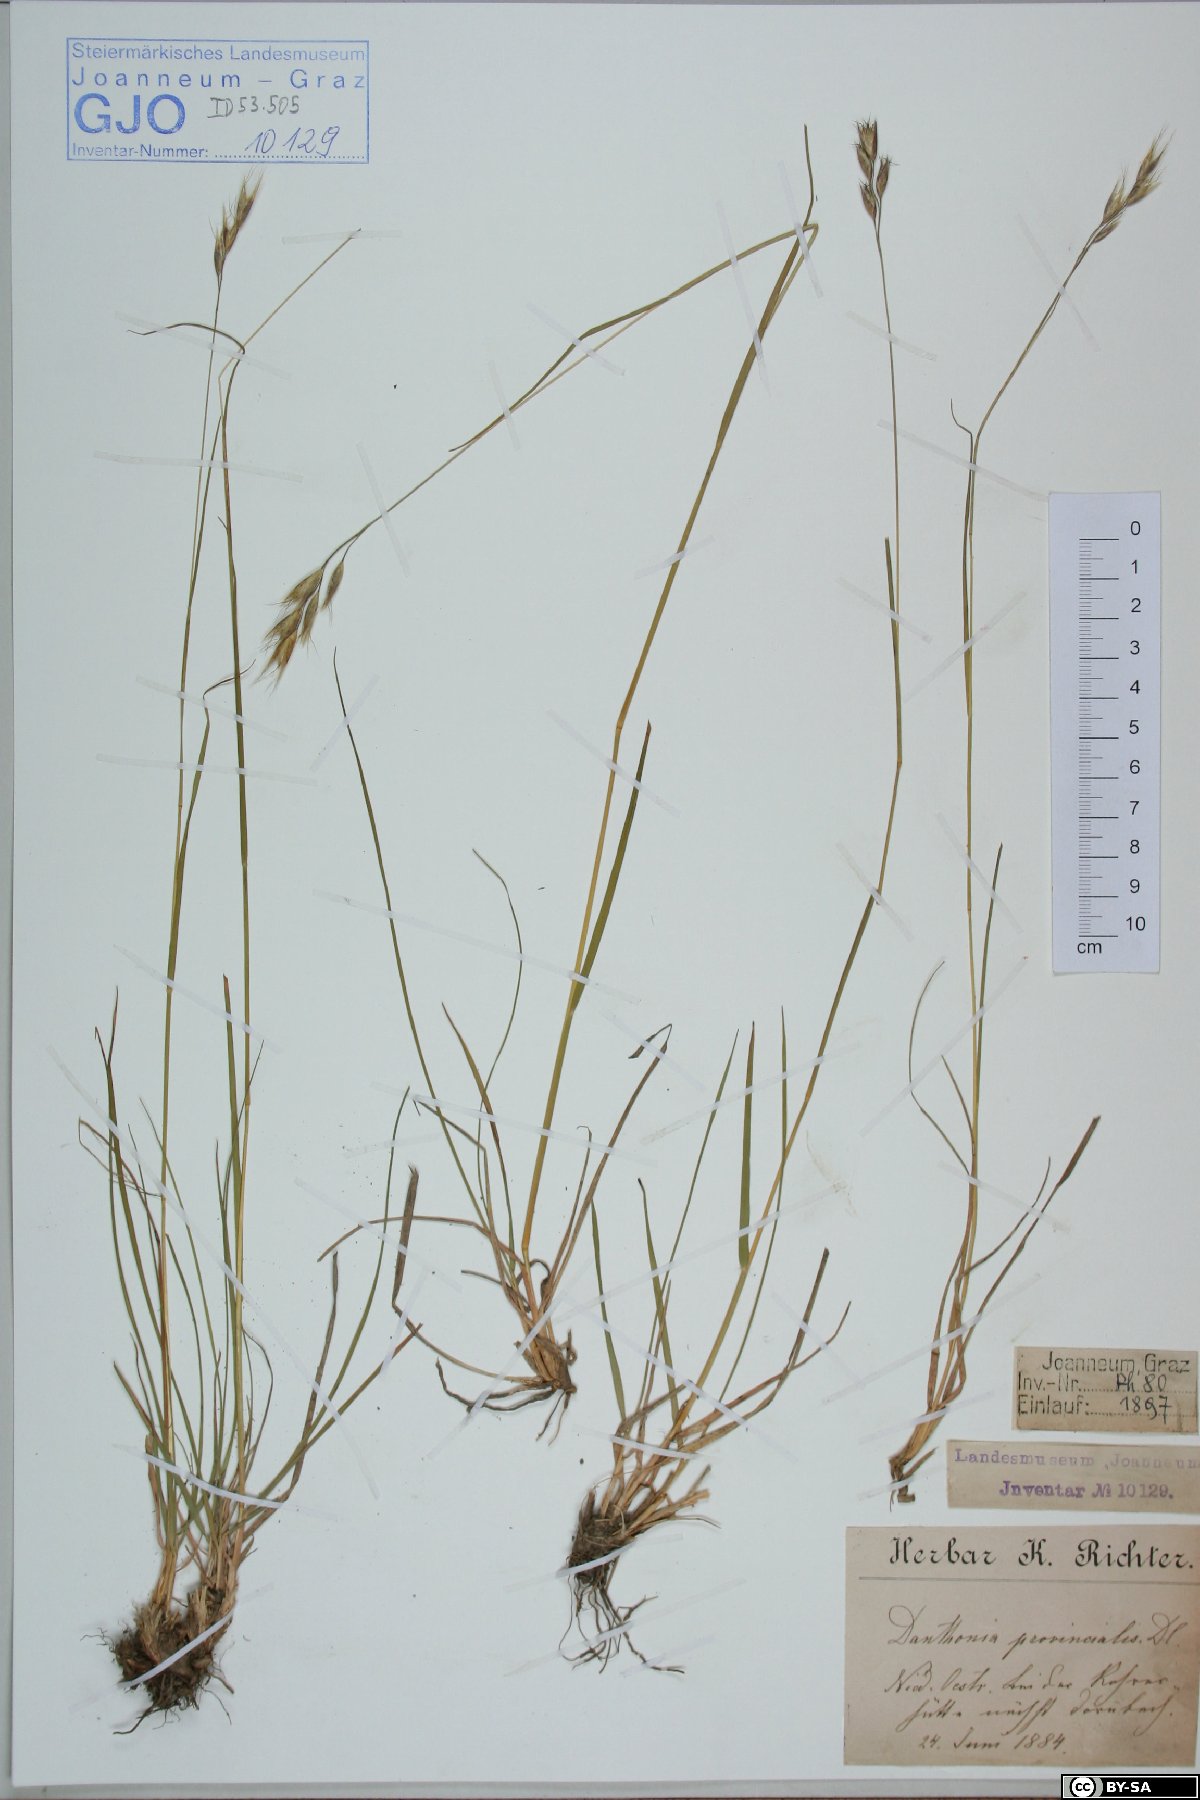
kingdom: Plantae
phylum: Tracheophyta
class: Liliopsida
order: Poales
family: Poaceae
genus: Danthonia
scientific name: Danthonia alpina
